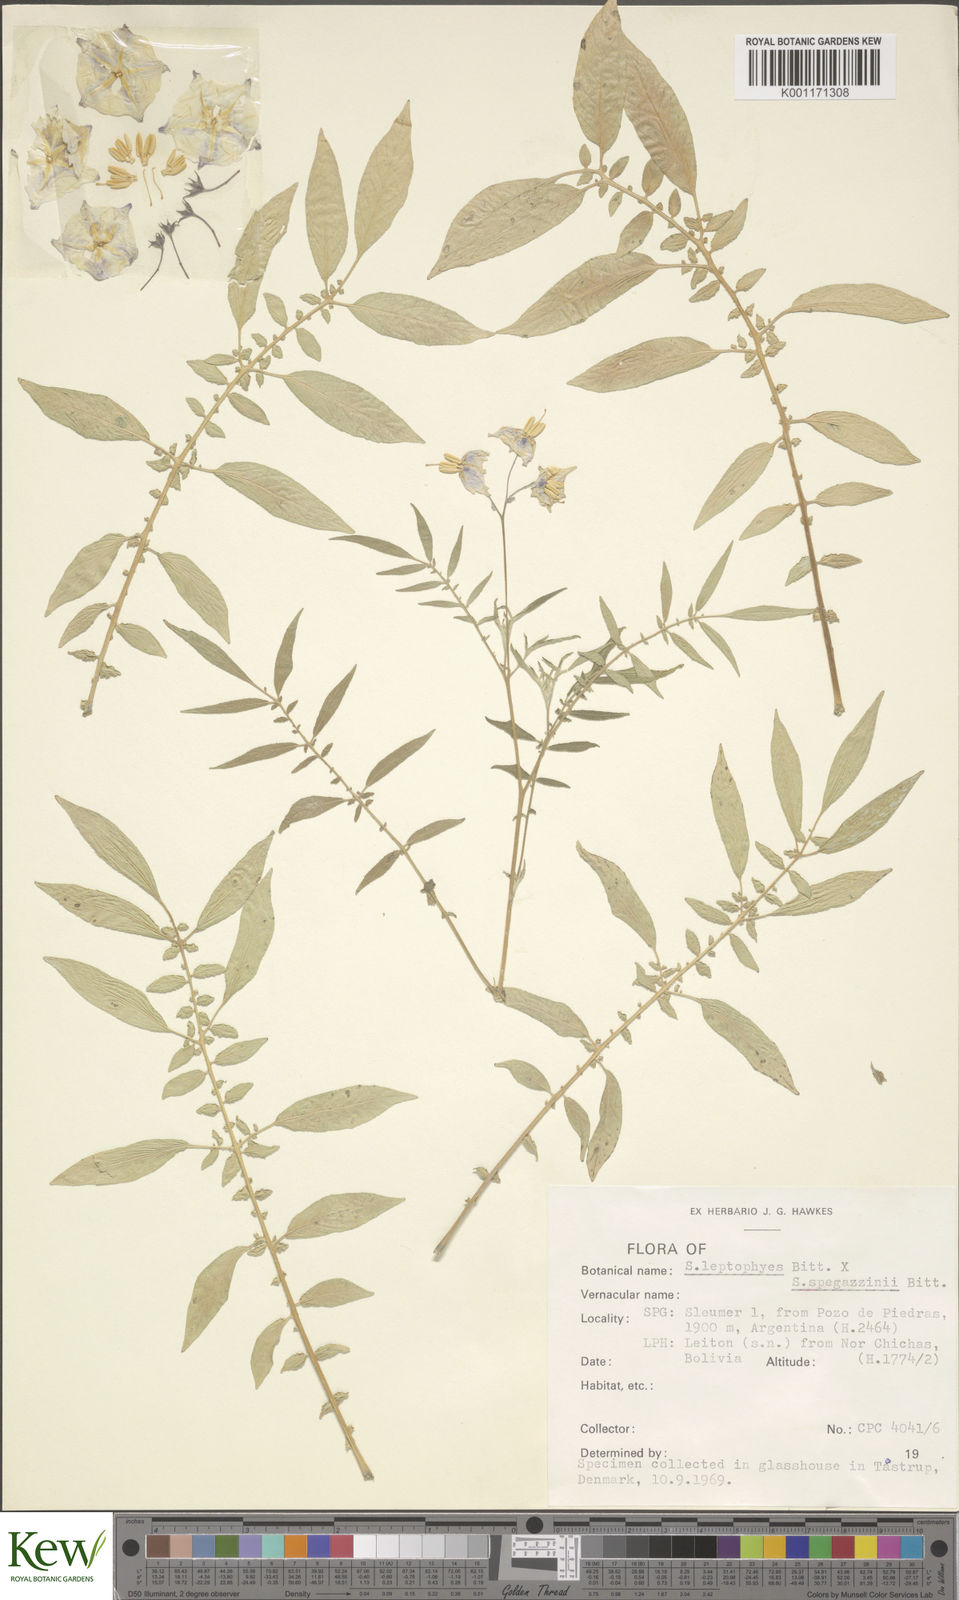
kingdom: Plantae
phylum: Tracheophyta
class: Magnoliopsida
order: Solanales
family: Solanaceae
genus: Solanum
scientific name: Solanum brevicaule
